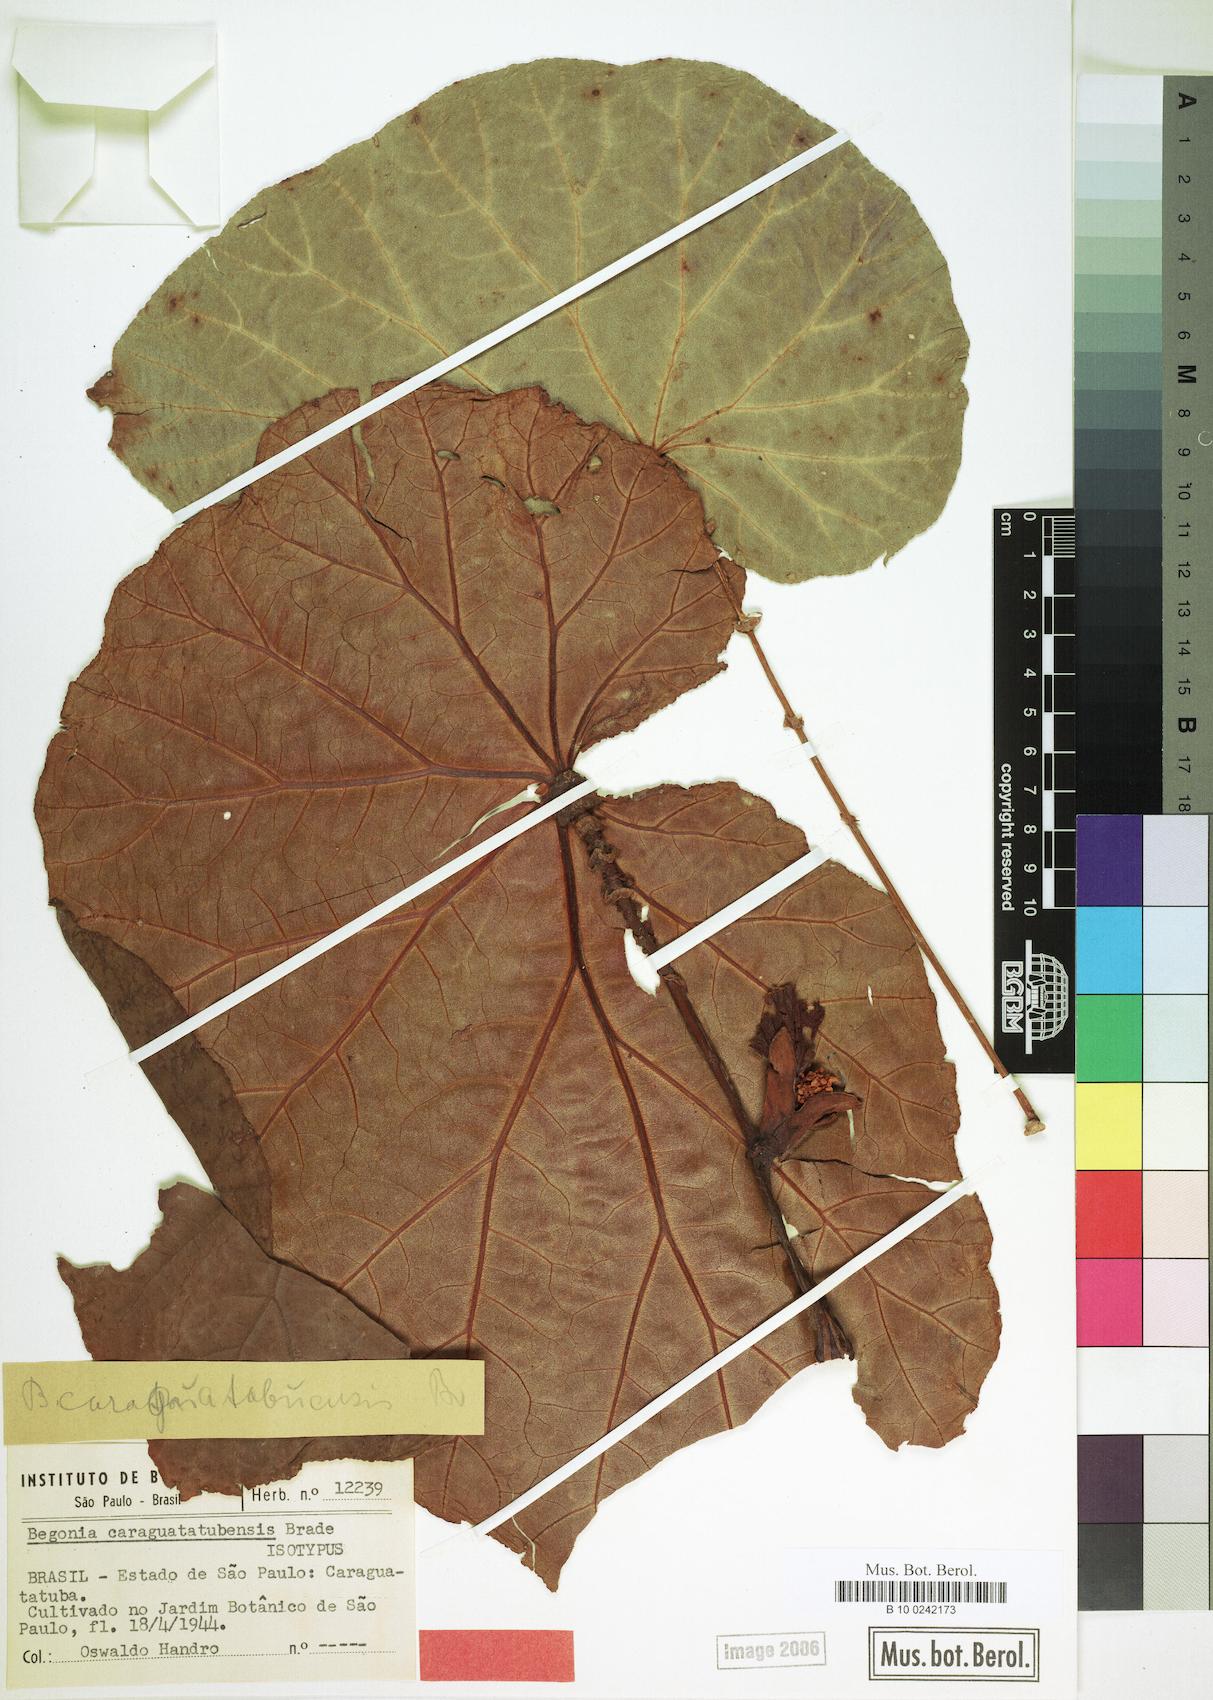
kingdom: Plantae
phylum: Tracheophyta
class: Magnoliopsida
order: Cucurbitales
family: Begoniaceae
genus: Begonia
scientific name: Begonia caraguatatubensis
